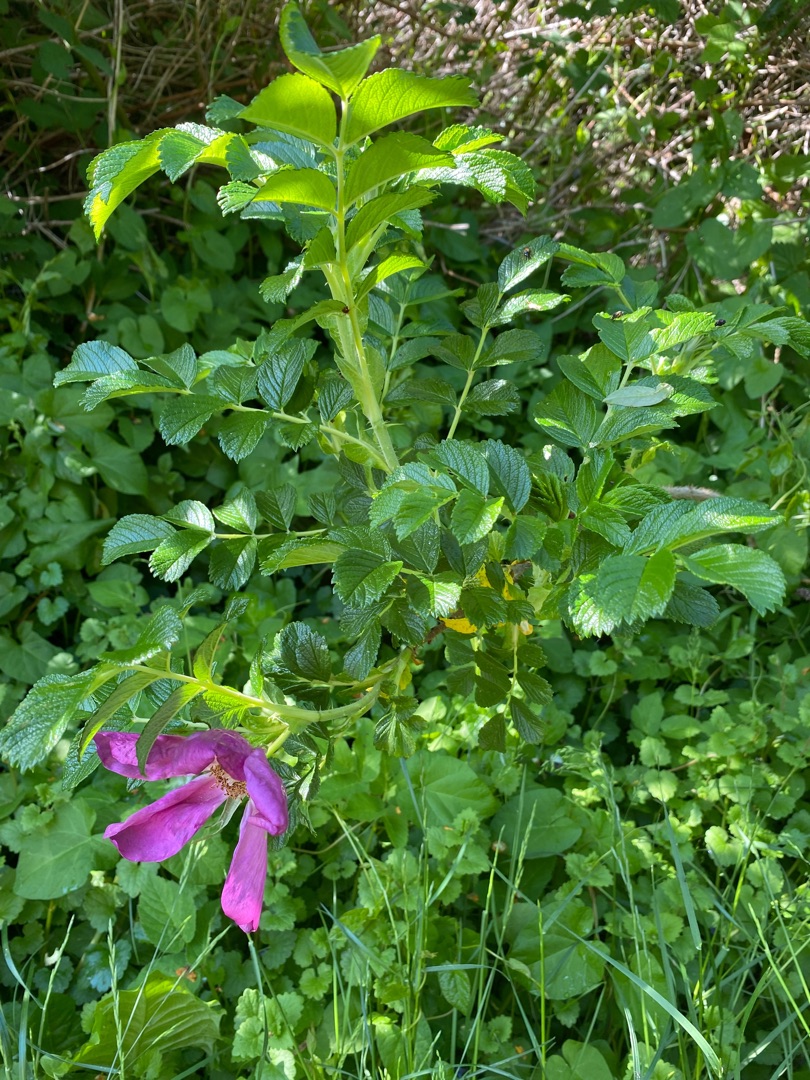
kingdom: Plantae
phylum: Tracheophyta
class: Magnoliopsida
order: Rosales
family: Rosaceae
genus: Rosa
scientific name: Rosa rugosa
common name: Rynket rose
